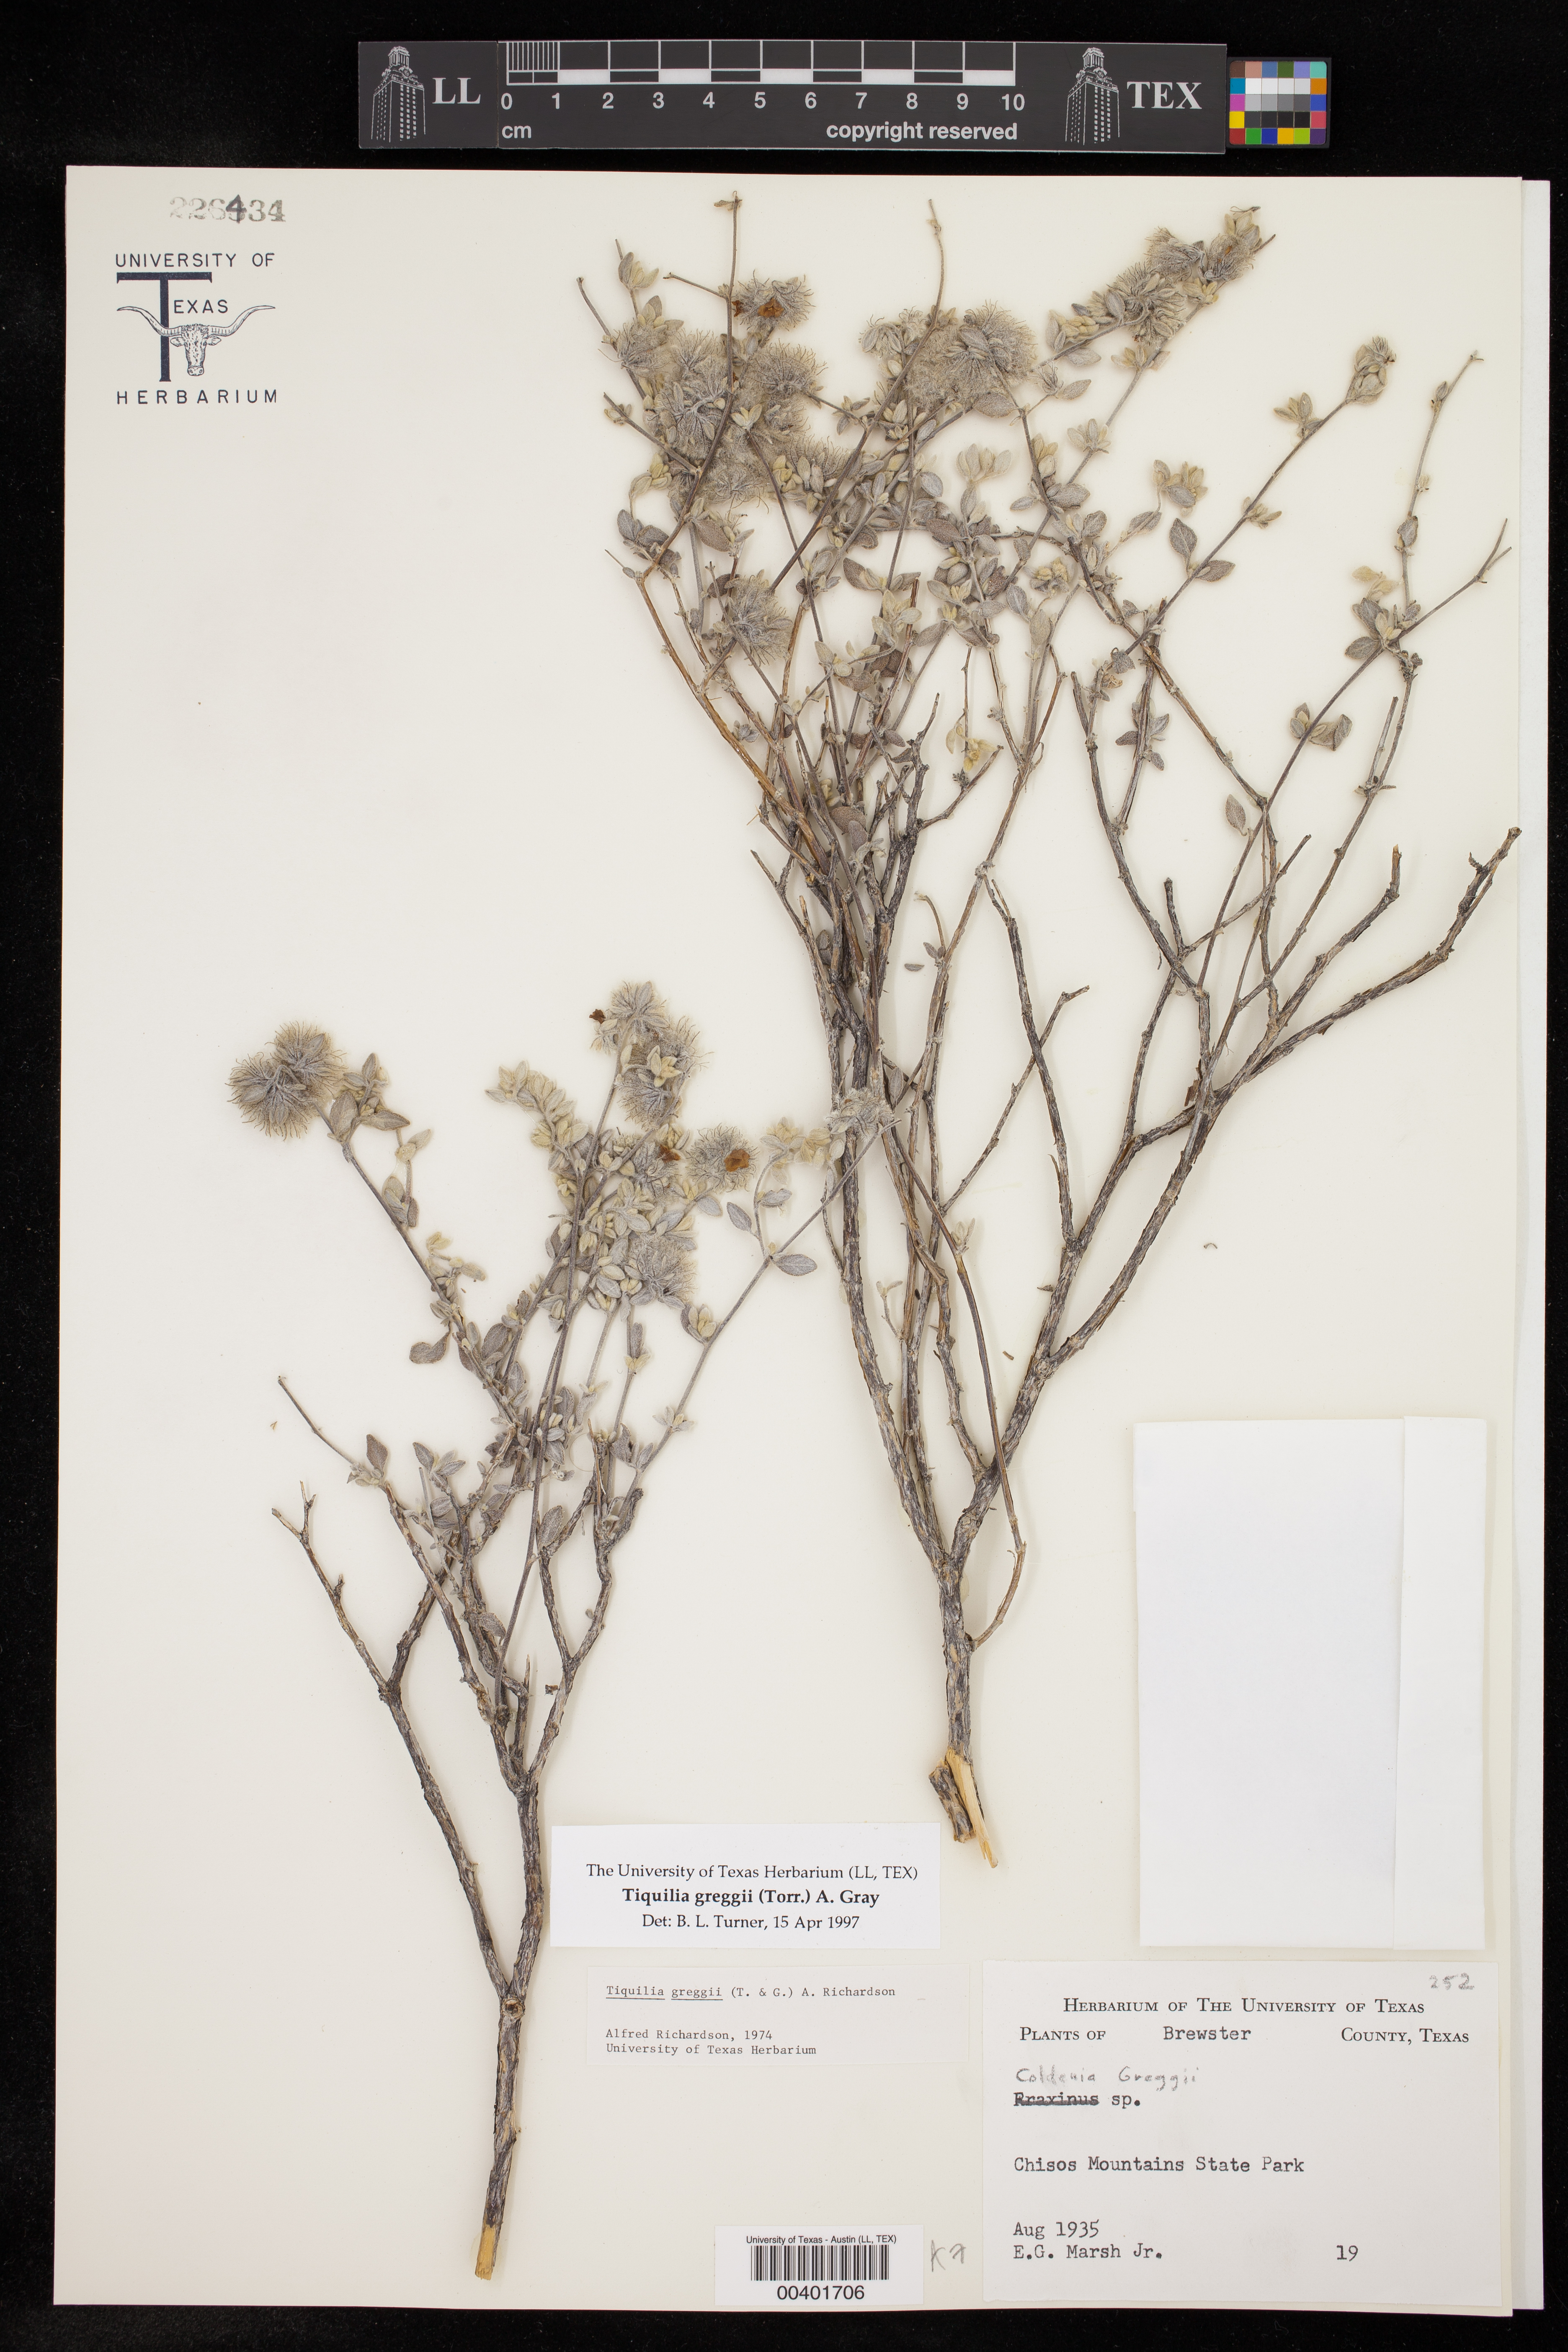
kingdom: Plantae
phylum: Tracheophyta
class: Magnoliopsida
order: Boraginales
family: Ehretiaceae
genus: Tiquilia
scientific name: Tiquilia greggii
